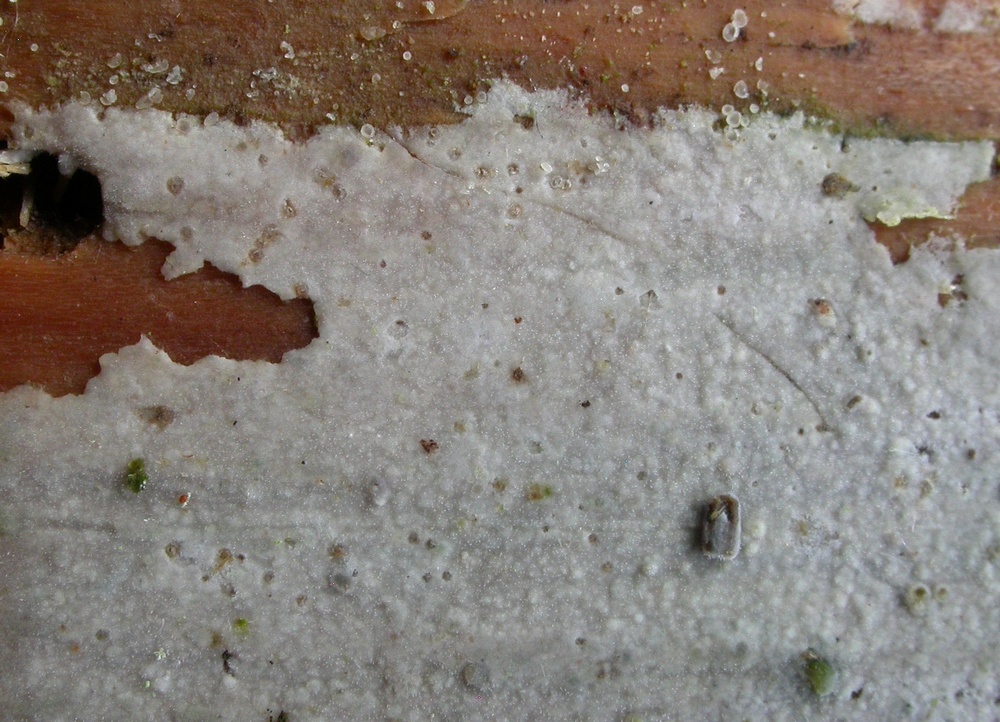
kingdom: Fungi
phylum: Basidiomycota
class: Agaricomycetes
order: Polyporales
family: Phanerochaetaceae
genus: Phanerochaete
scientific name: Phanerochaete sordida
